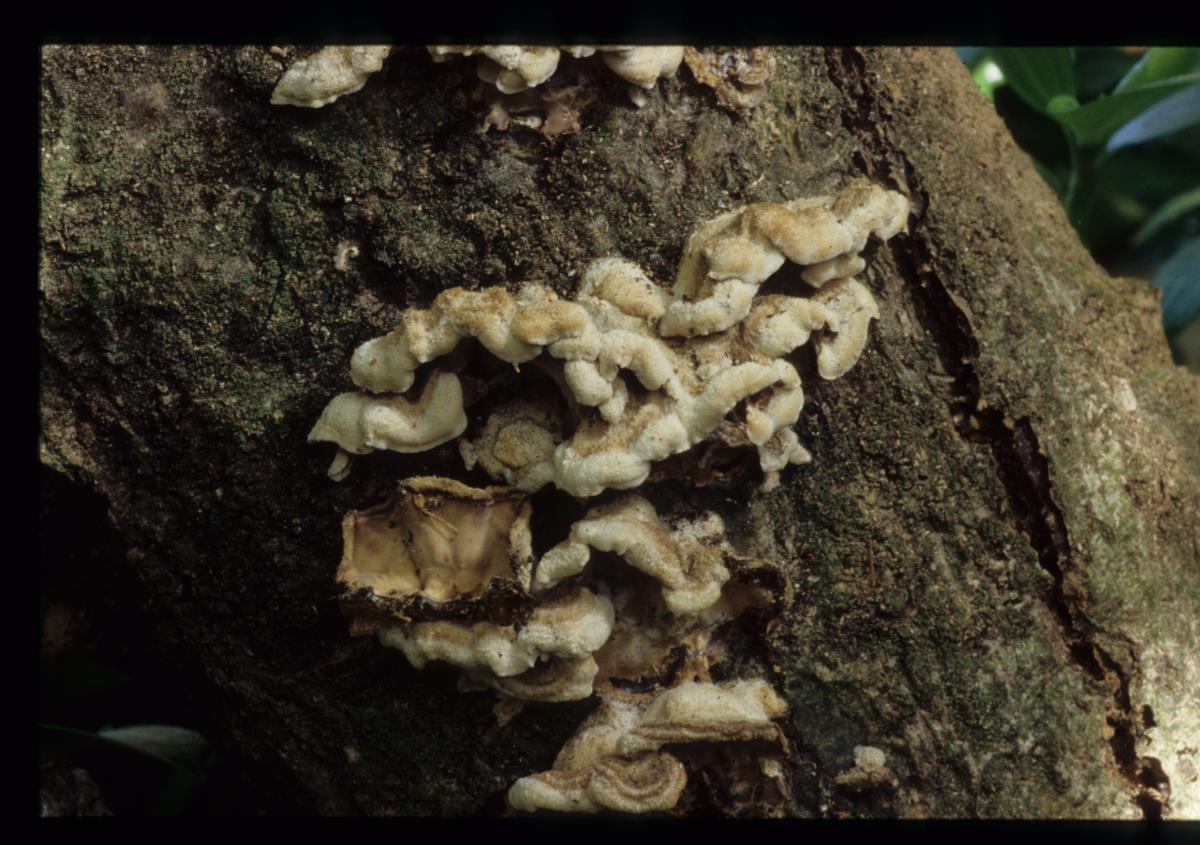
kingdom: Fungi
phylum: Basidiomycota
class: Agaricomycetes
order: Agaricales
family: Cyphellaceae
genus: Chondrostereum
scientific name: Chondrostereum
